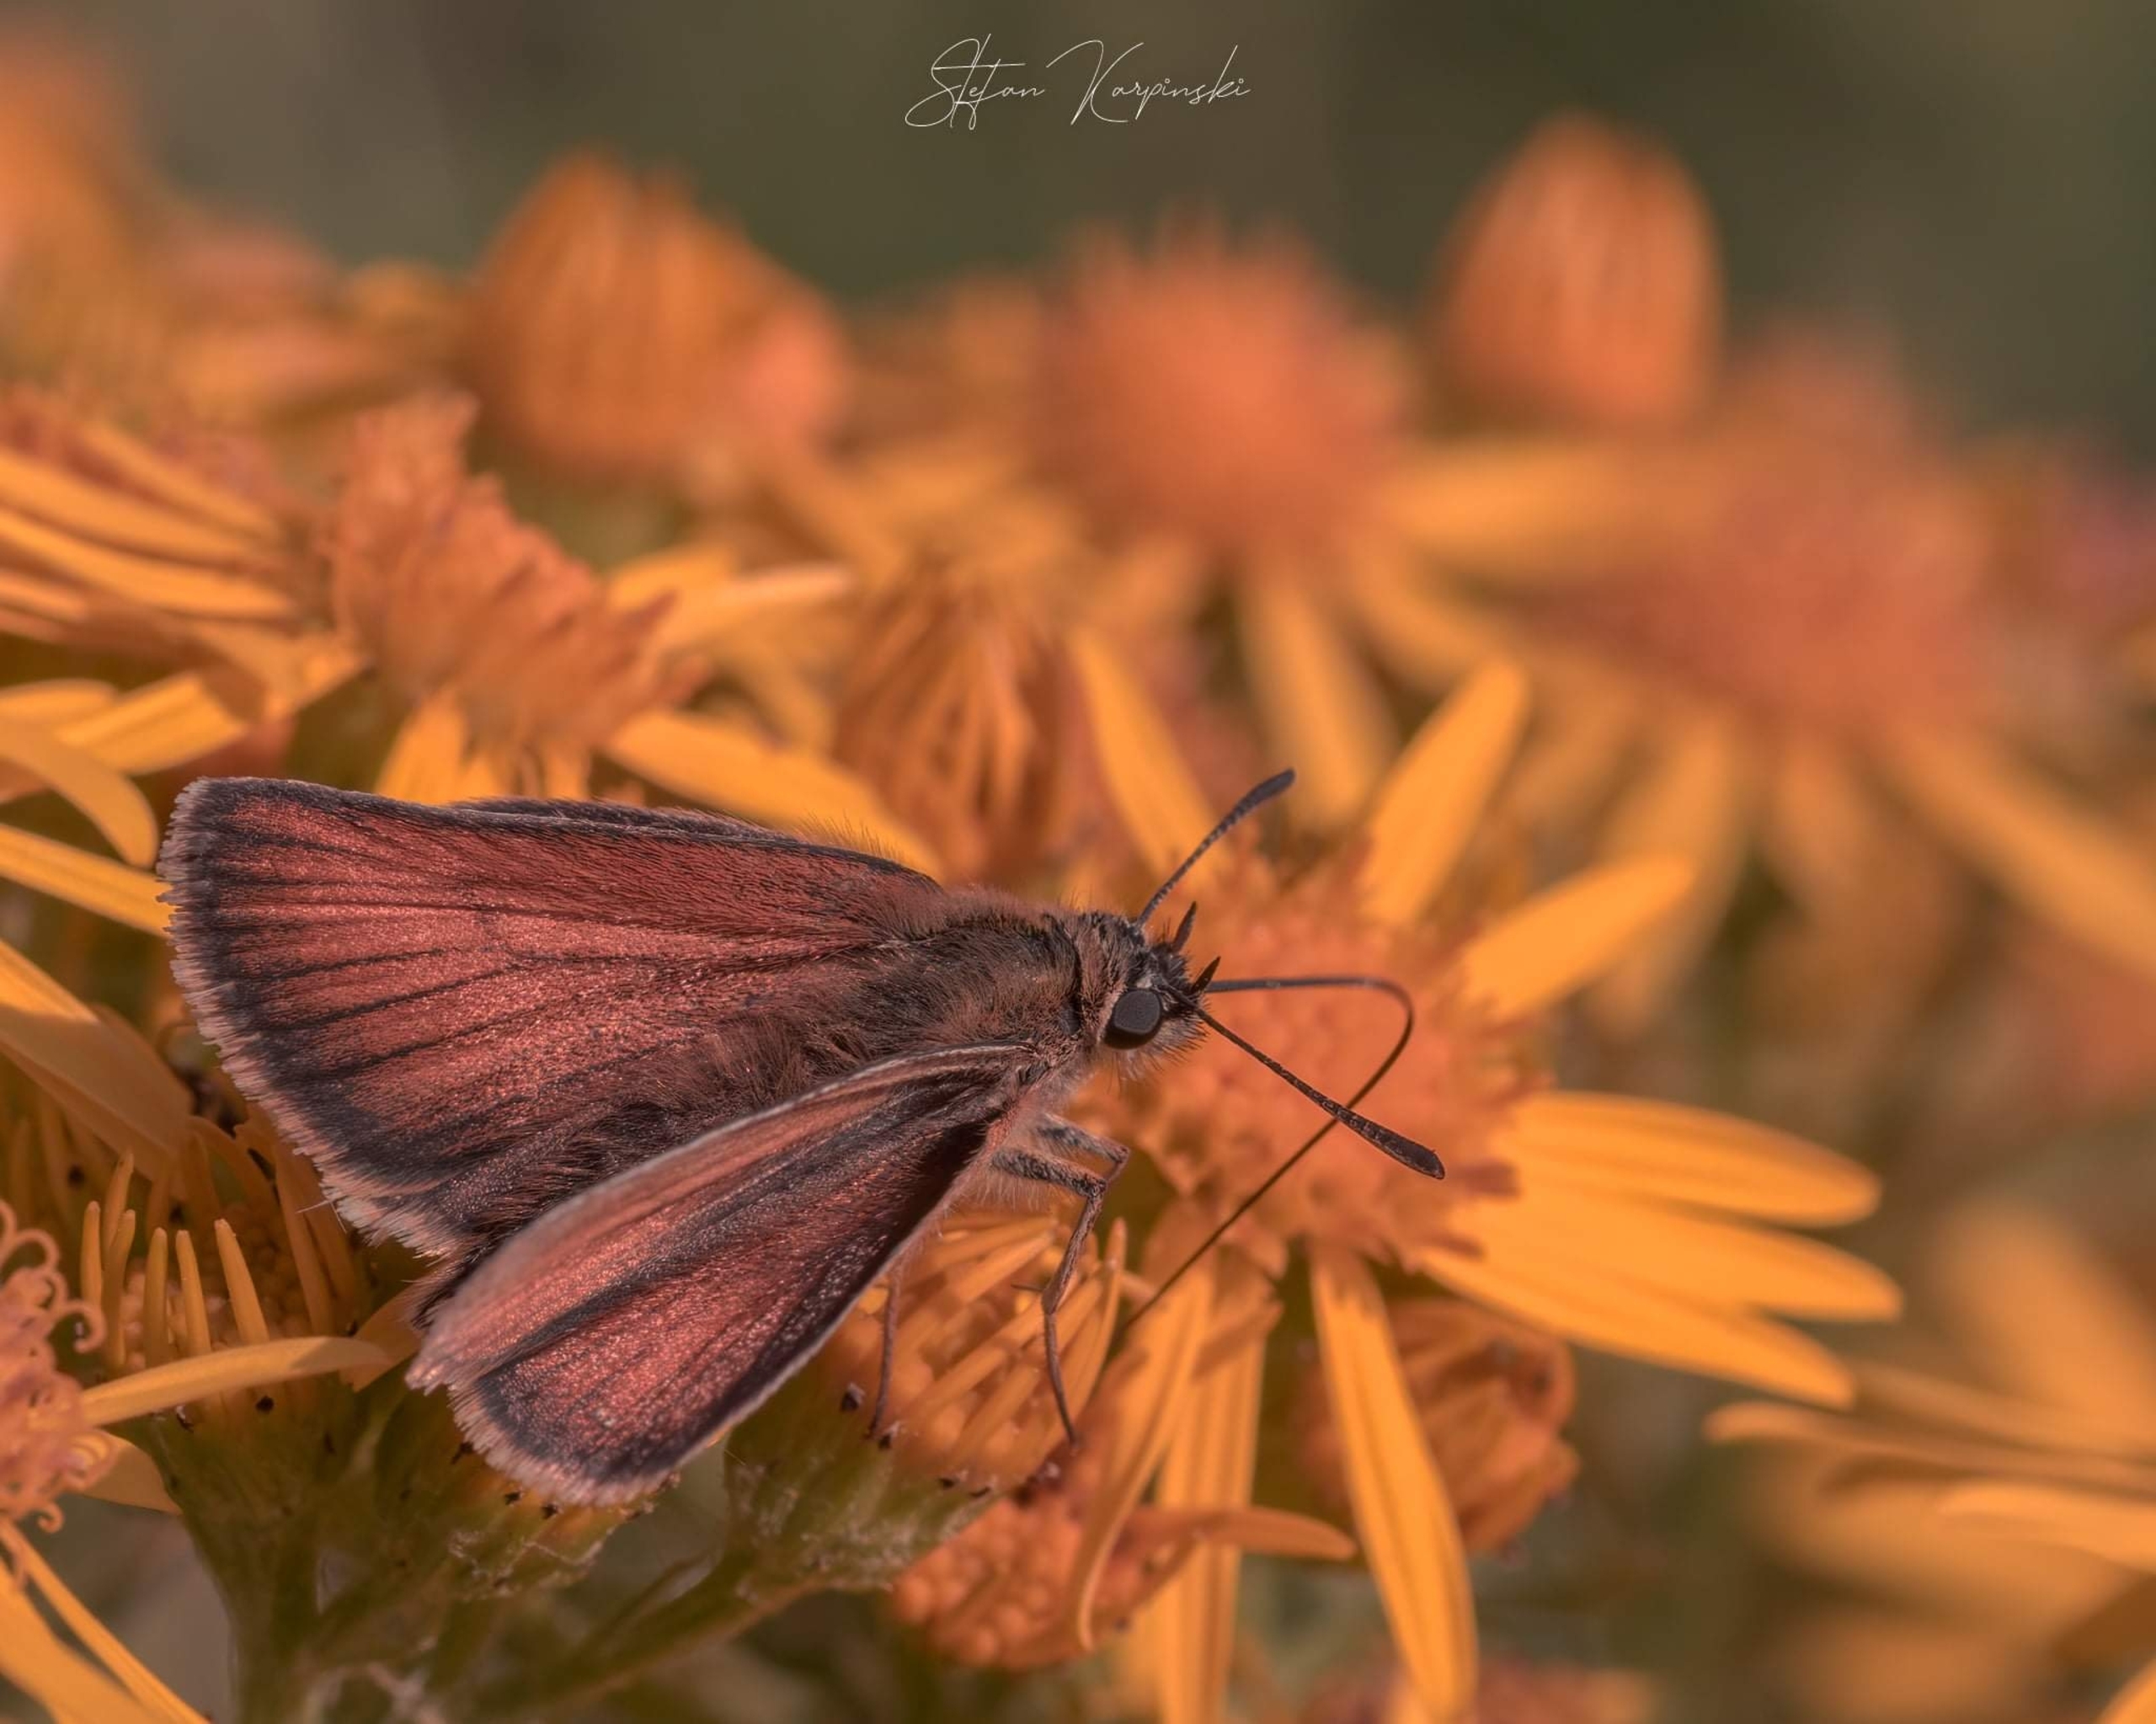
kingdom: Animalia
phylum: Arthropoda
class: Insecta
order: Lepidoptera
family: Hesperiidae
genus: Thymelicus
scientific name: Thymelicus lineola
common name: Stregbredpande
